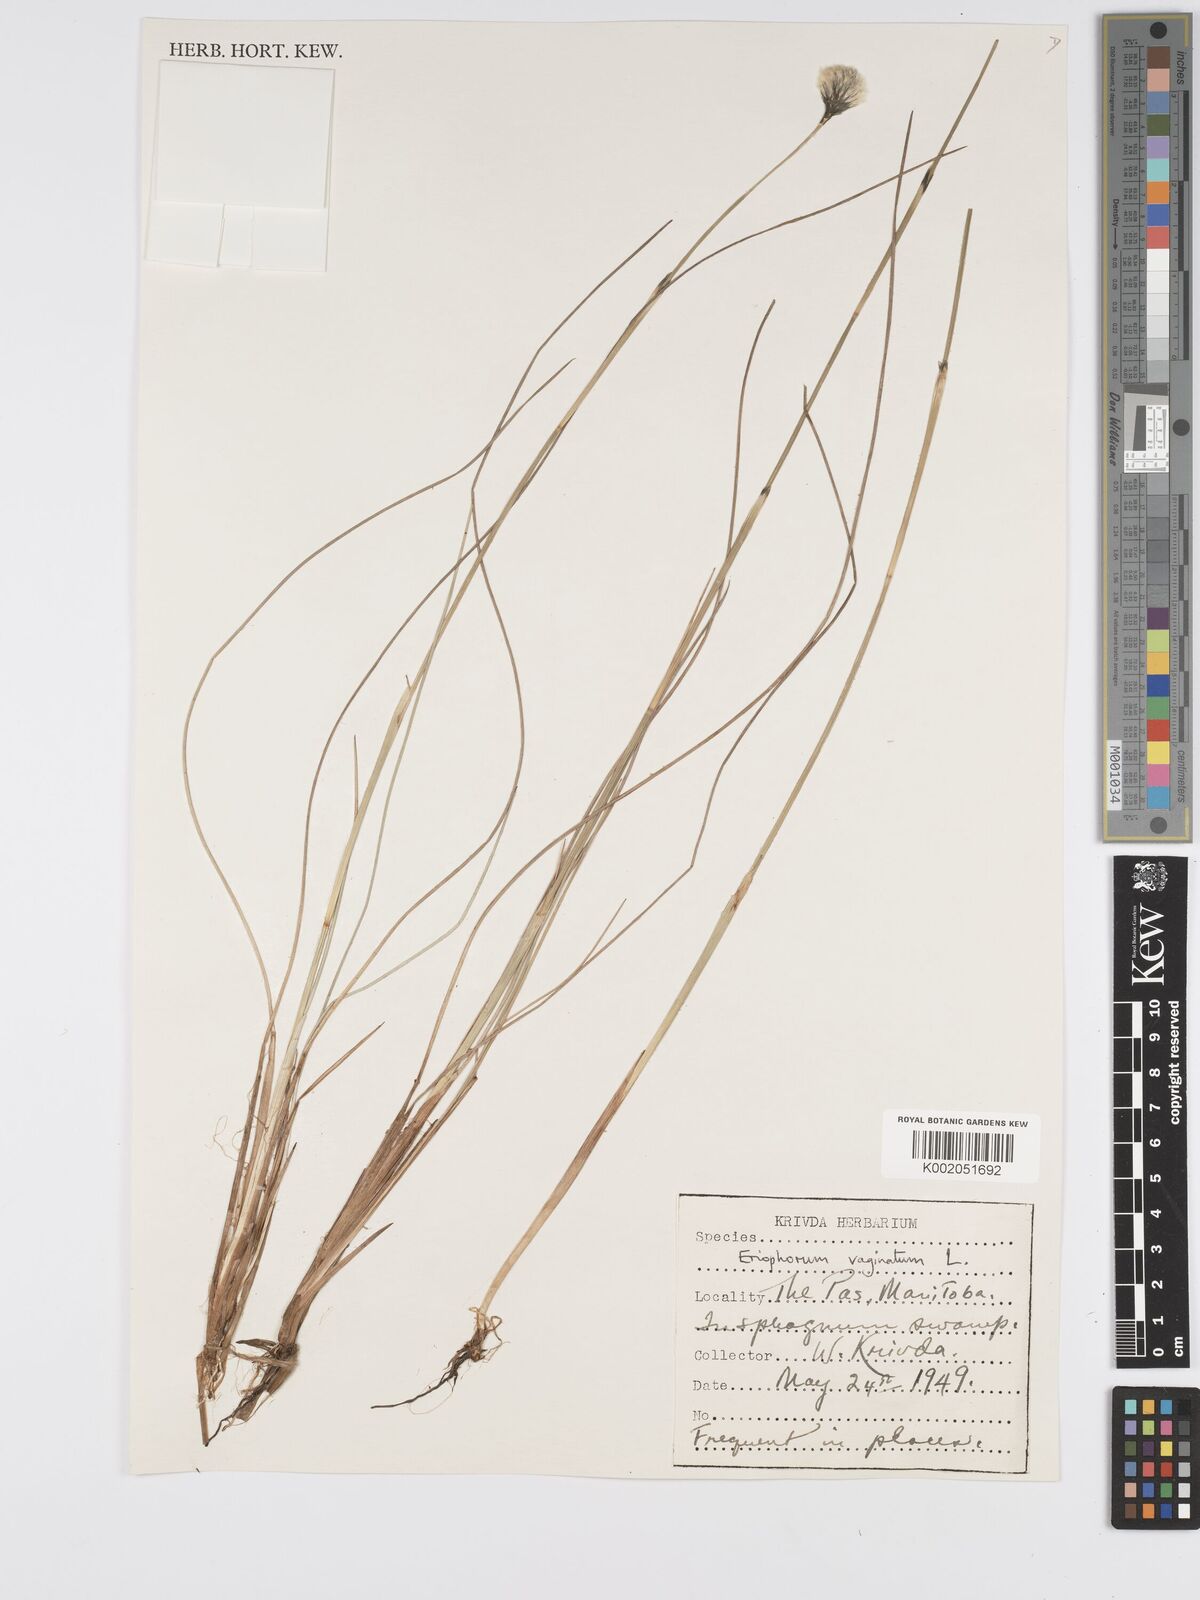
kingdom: Plantae
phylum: Tracheophyta
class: Liliopsida
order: Poales
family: Cyperaceae
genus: Eriophorum
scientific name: Eriophorum vaginatum
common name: Hare's-tail cottongrass
